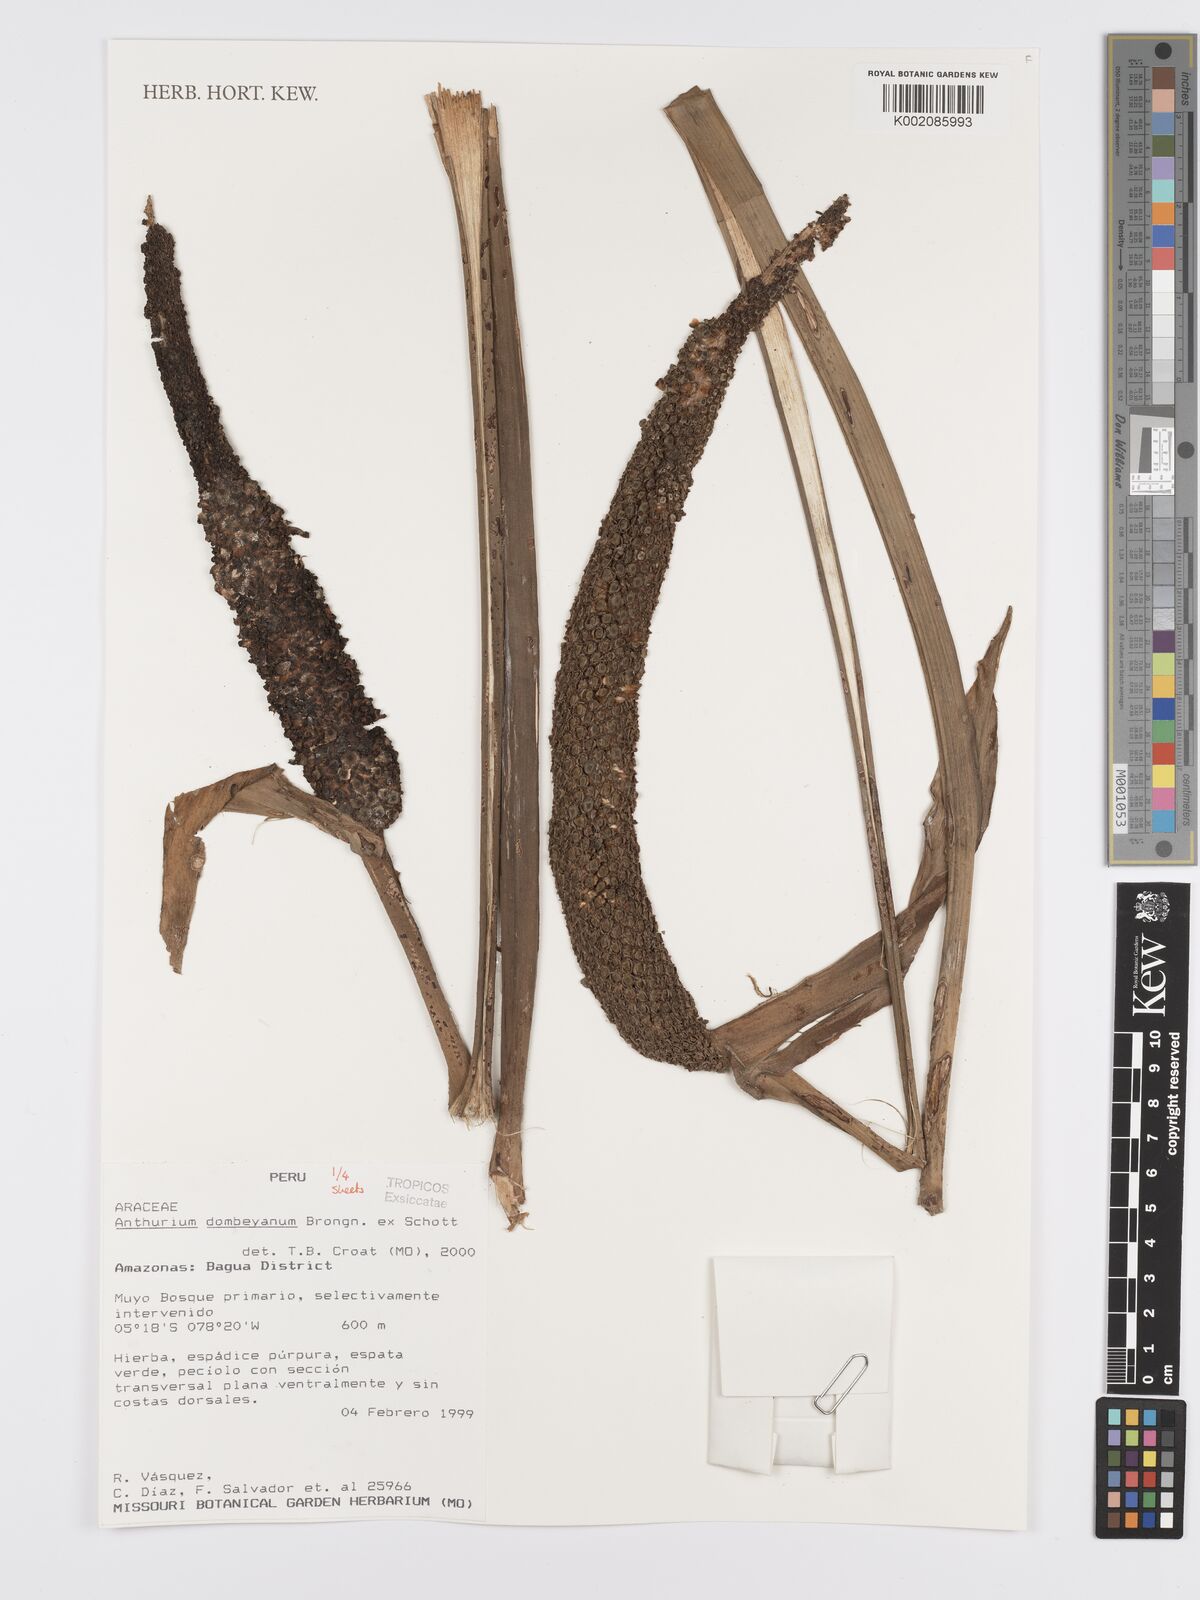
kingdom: Plantae
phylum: Tracheophyta
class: Liliopsida
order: Alismatales
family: Araceae
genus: Anthurium
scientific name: Anthurium dombeyanum
